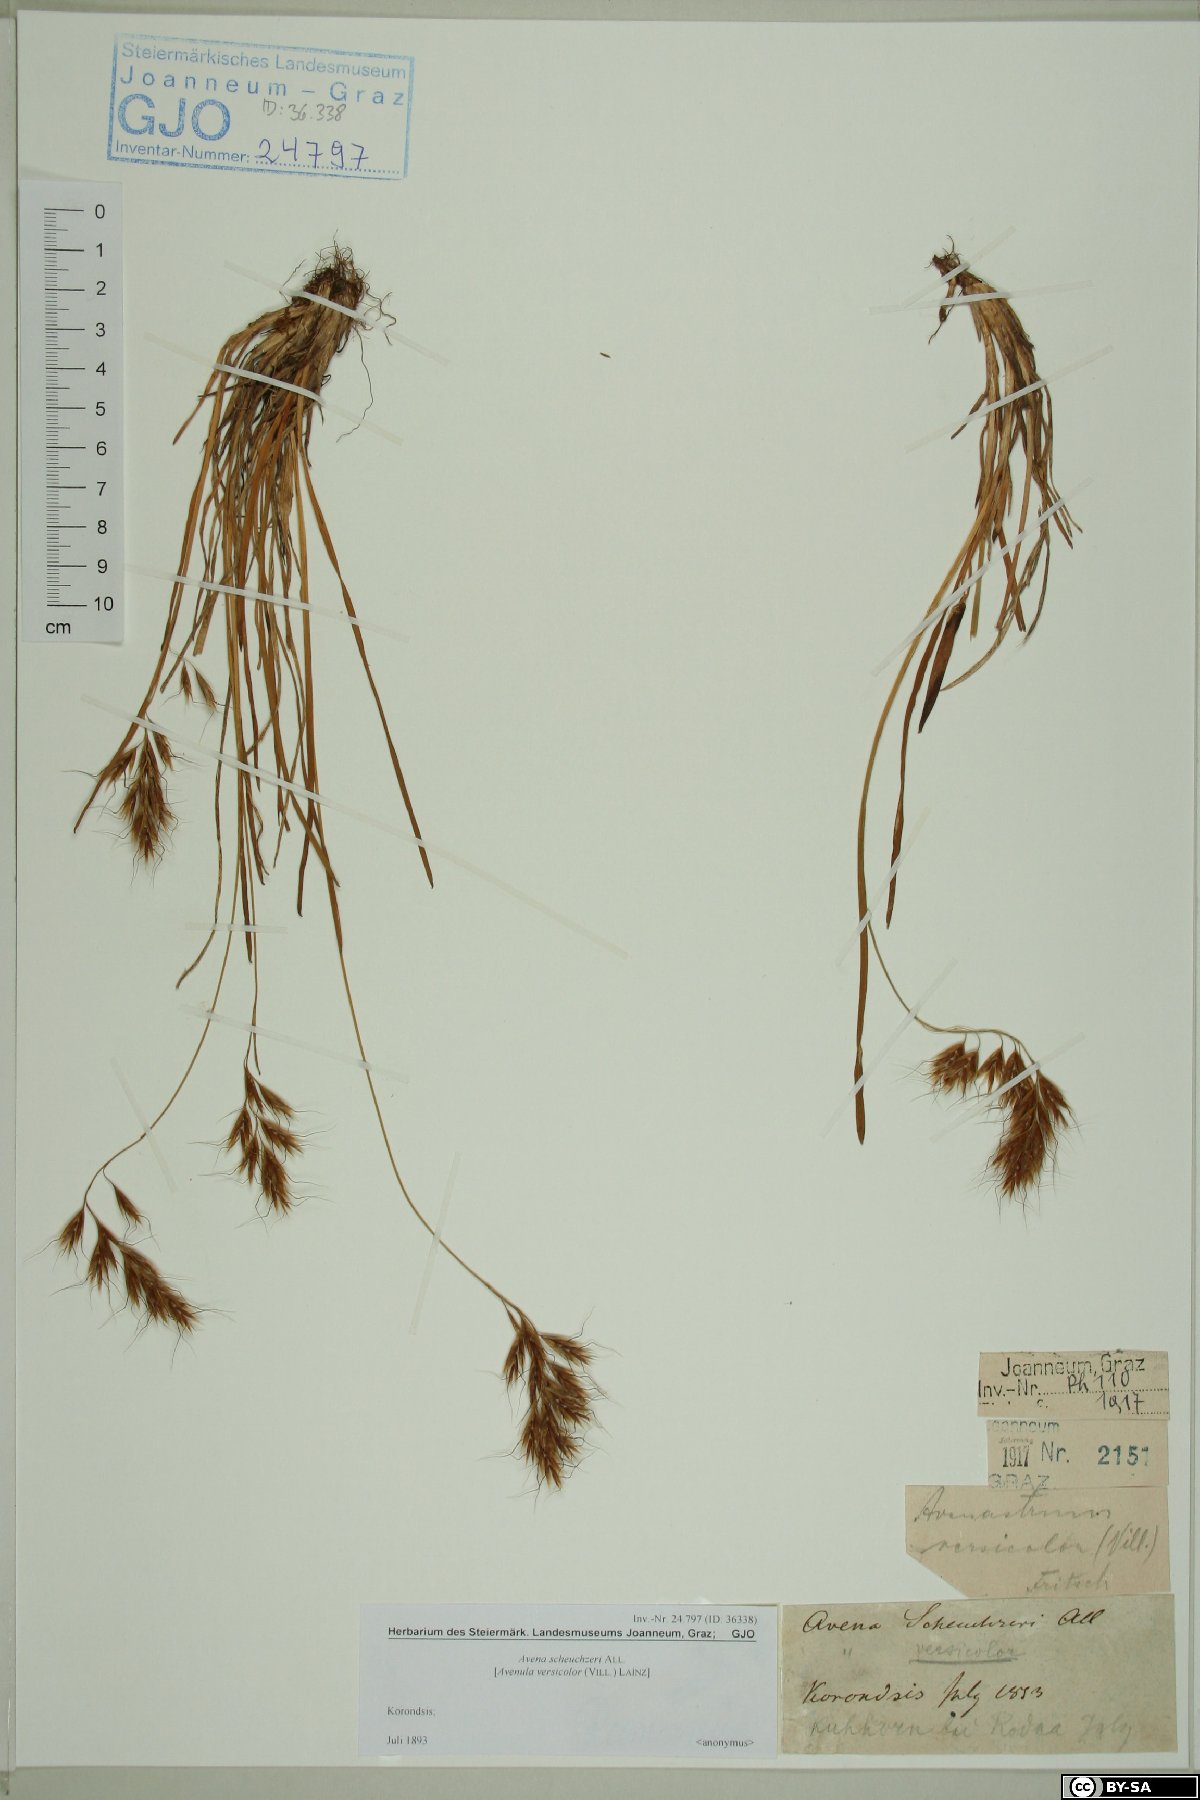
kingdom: Plantae
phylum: Tracheophyta
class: Liliopsida
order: Poales
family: Poaceae
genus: Helictochloa
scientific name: Helictochloa versicolor
